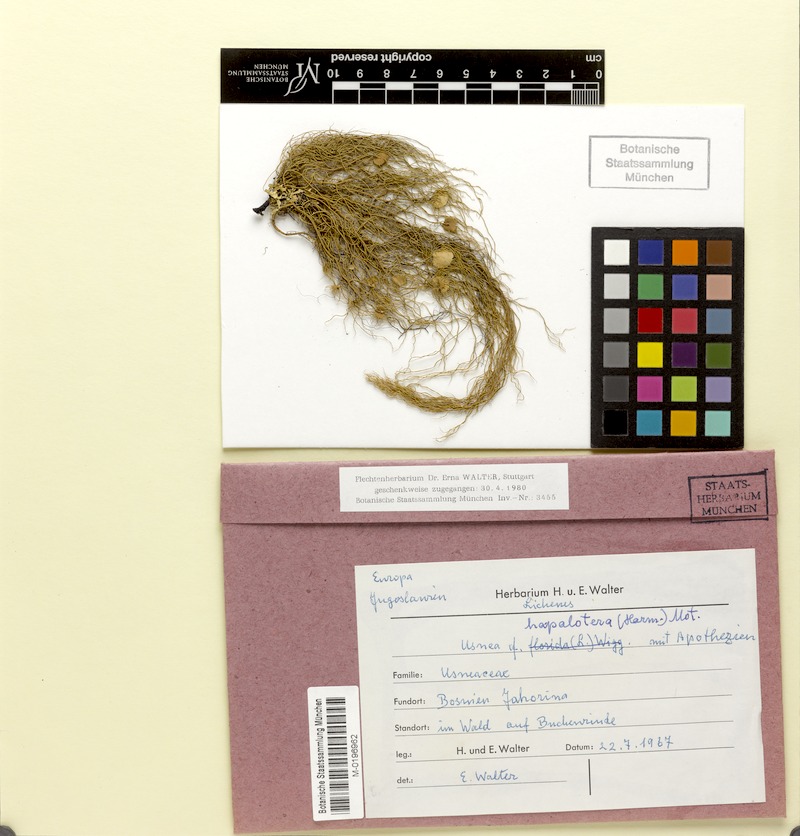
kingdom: Fungi
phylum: Ascomycota
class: Lecanoromycetes
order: Lecanorales
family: Parmeliaceae
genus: Usnea
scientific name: Usnea intermedia
